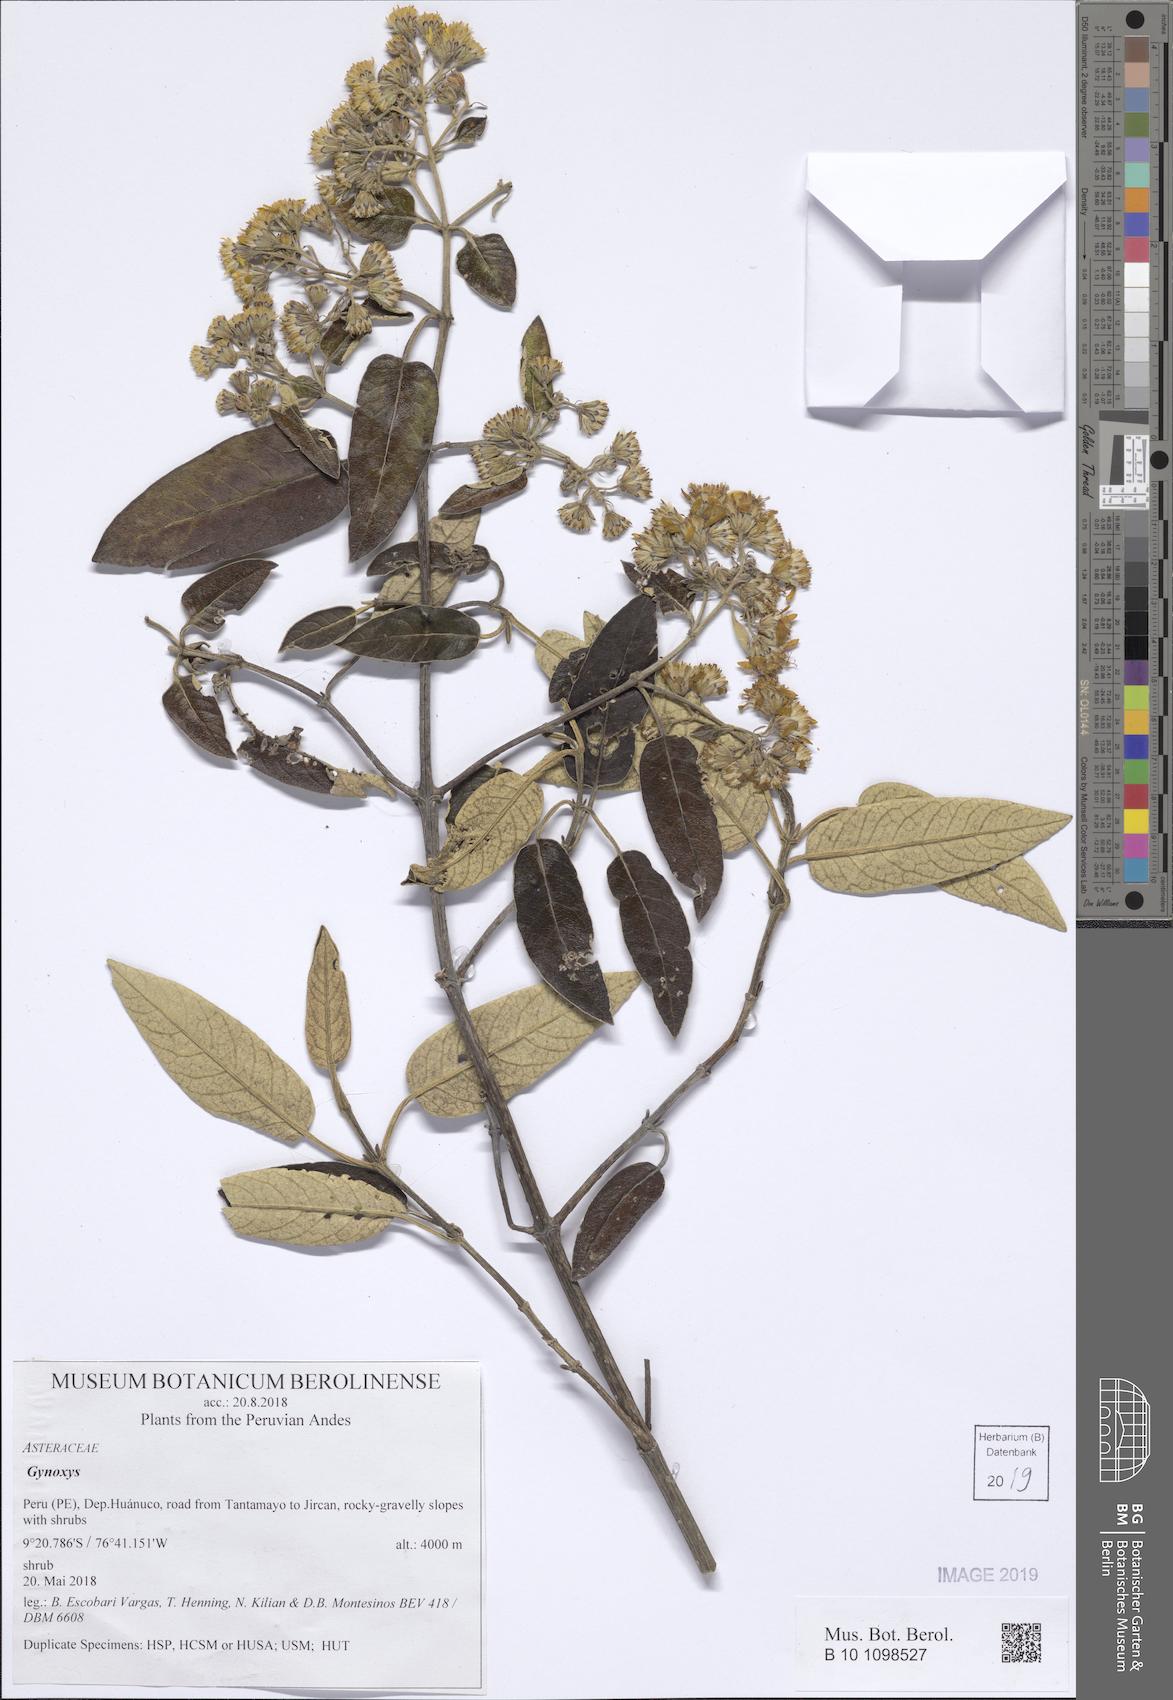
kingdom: Plantae
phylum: Tracheophyta
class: Magnoliopsida
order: Asterales
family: Asteraceae
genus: Gynoxys
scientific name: Gynoxys
